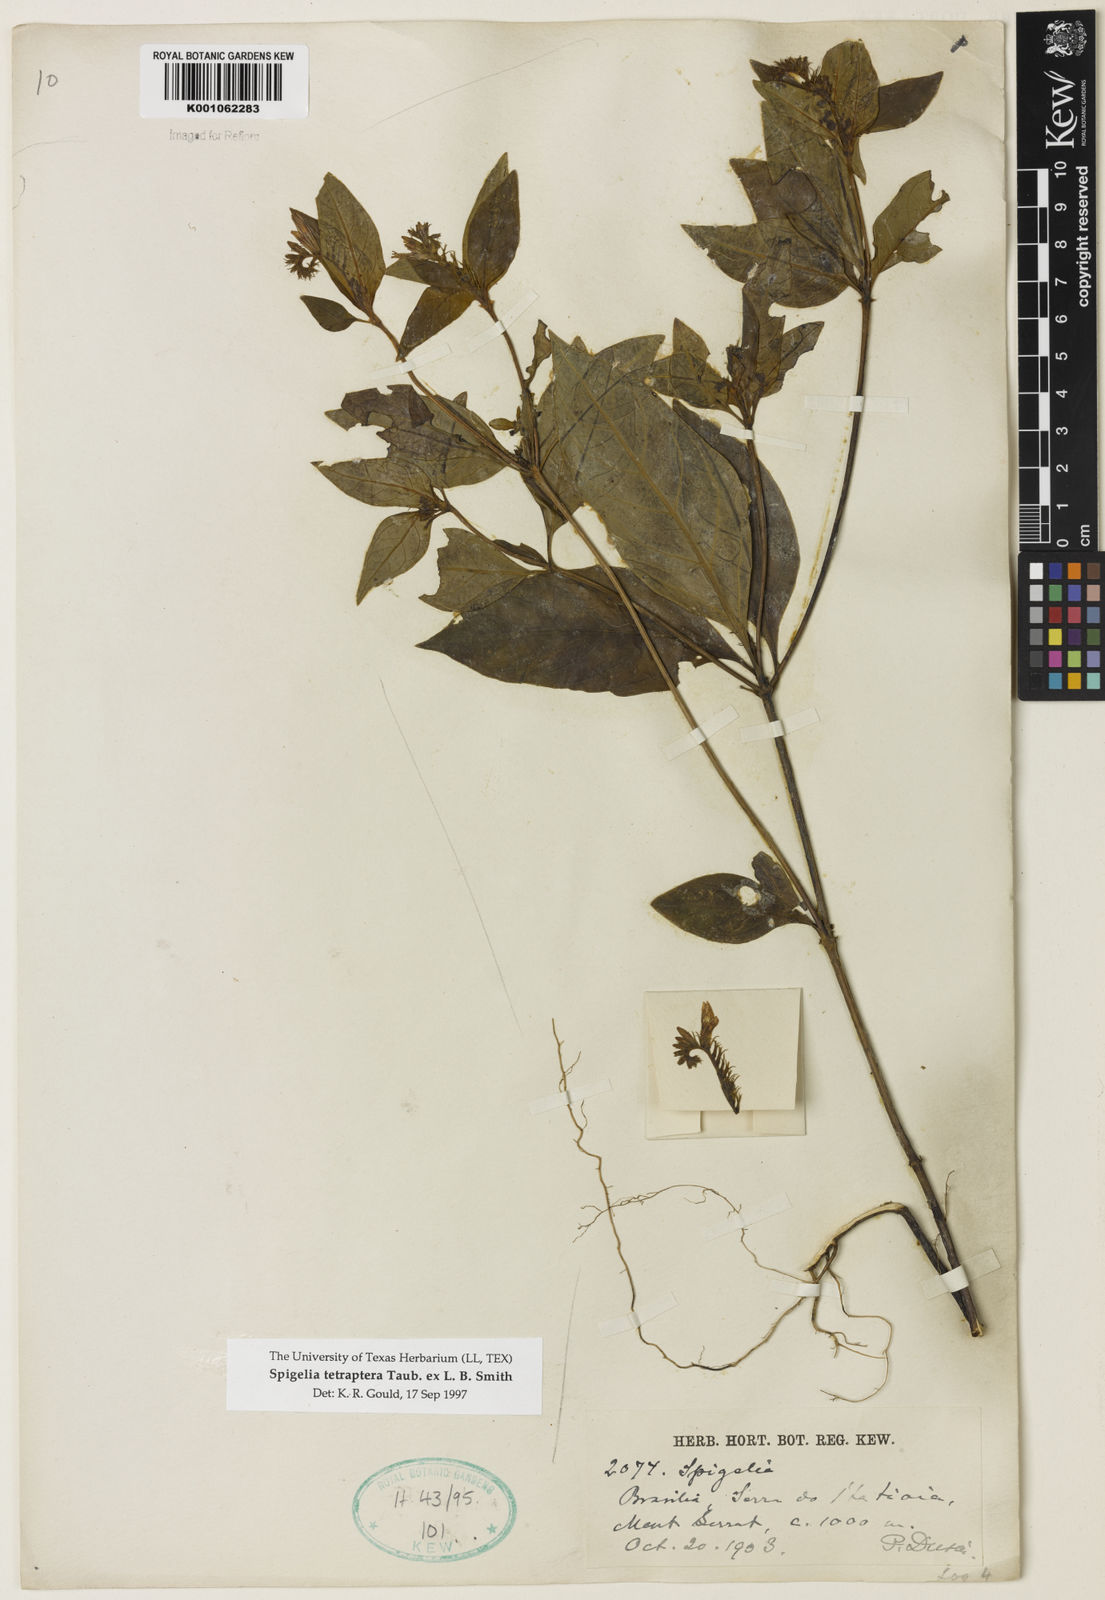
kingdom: Plantae
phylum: Tracheophyta
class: Magnoliopsida
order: Gentianales
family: Loganiaceae
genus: Spigelia
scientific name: Spigelia tetraptera
